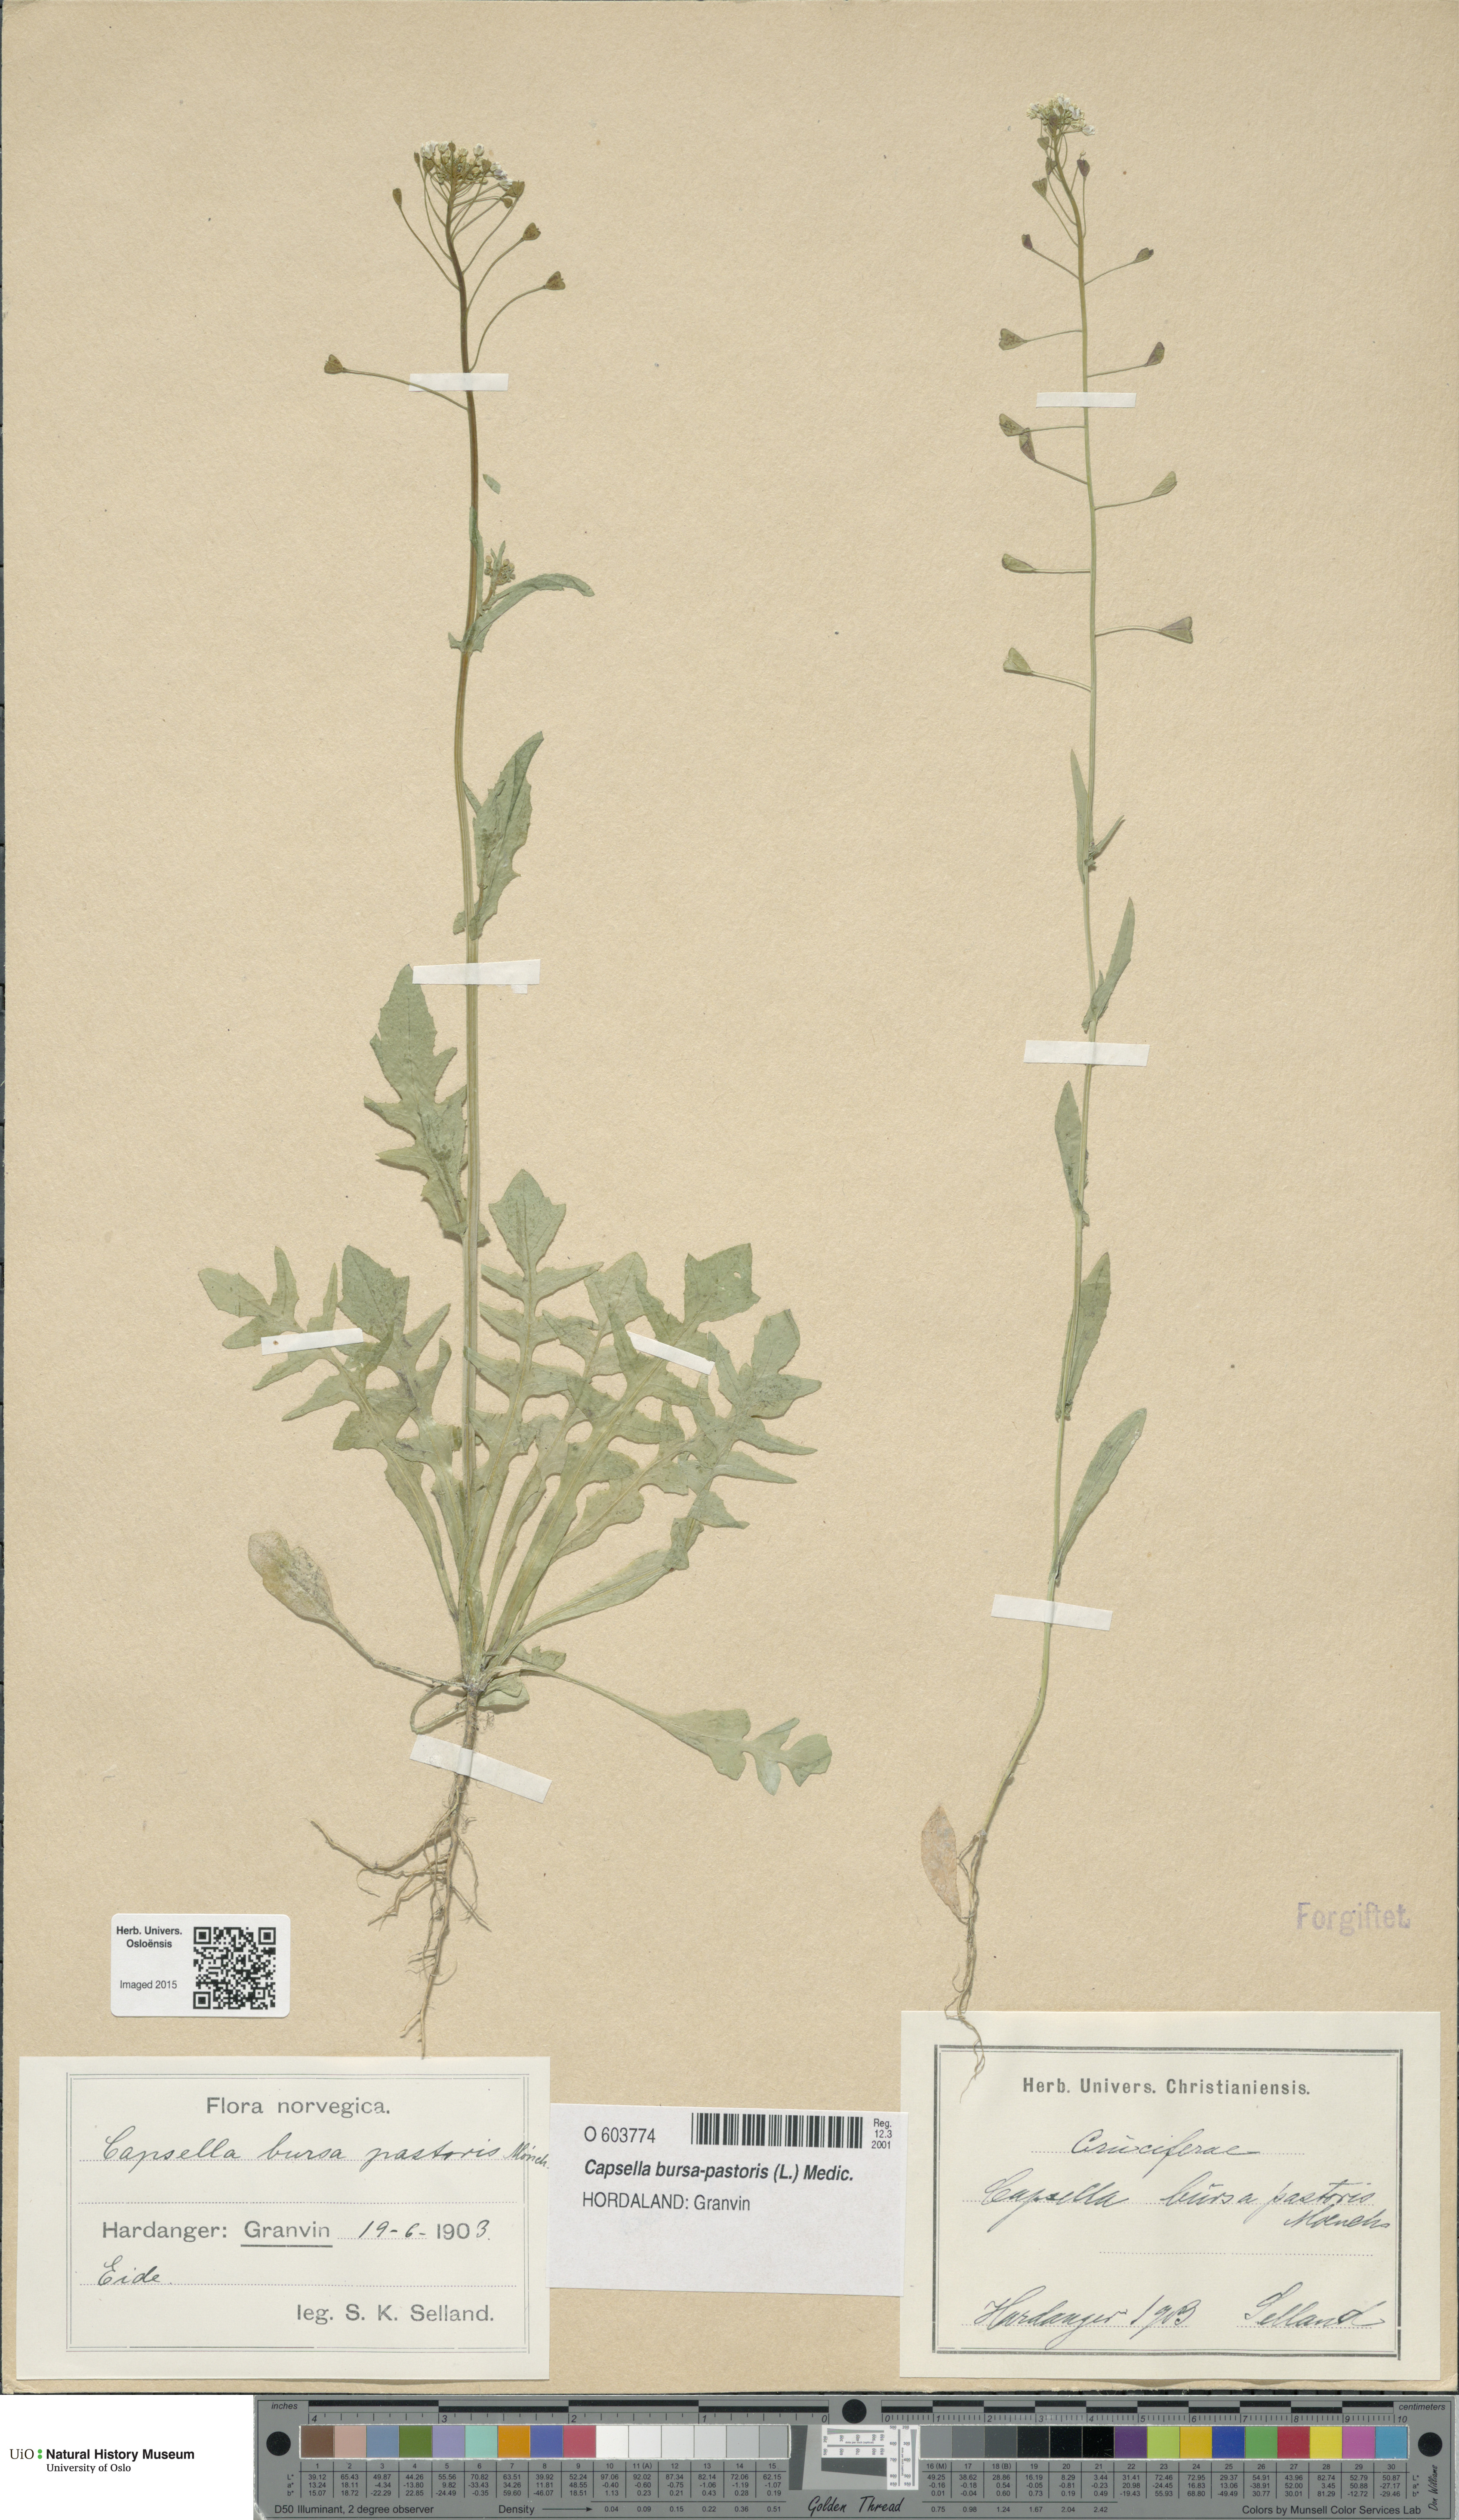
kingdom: Plantae
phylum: Tracheophyta
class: Magnoliopsida
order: Brassicales
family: Brassicaceae
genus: Capsella
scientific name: Capsella bursa-pastoris
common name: Shepherd's purse
